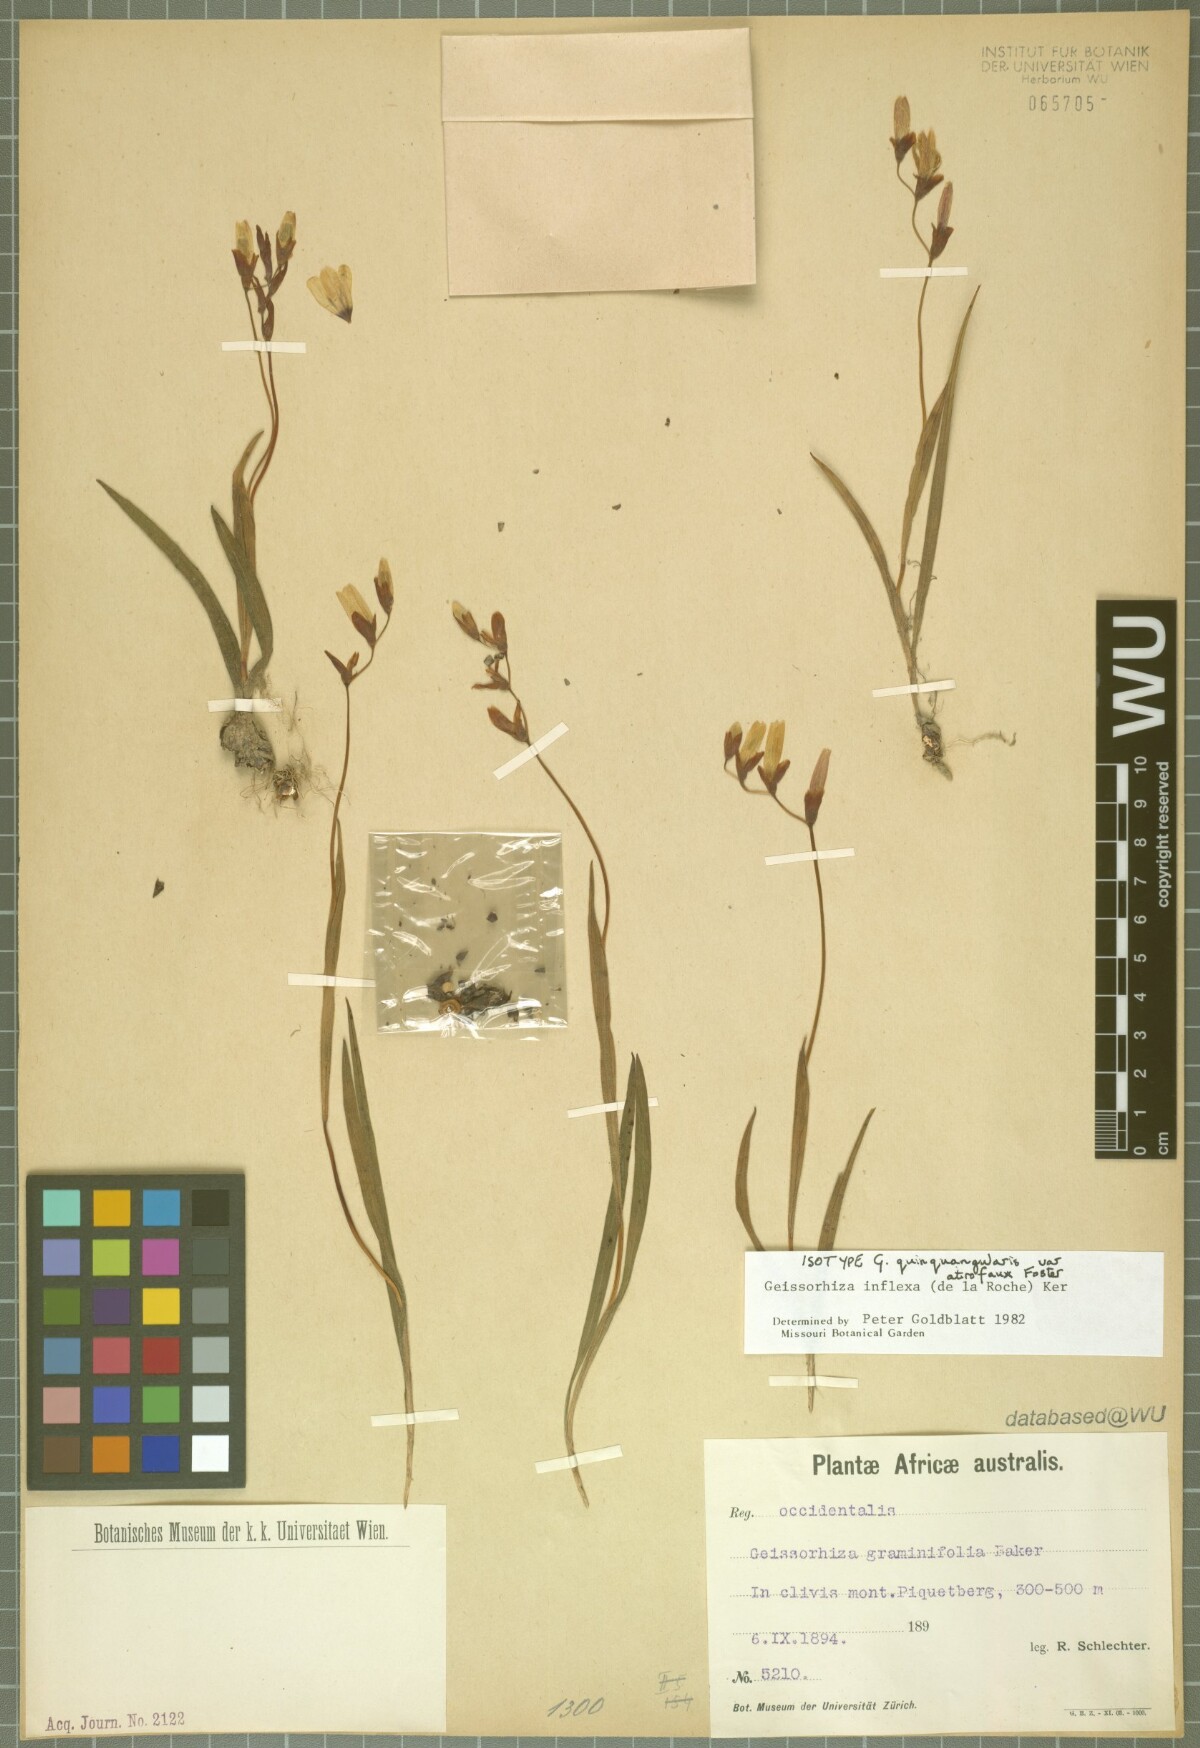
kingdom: Plantae
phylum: Tracheophyta
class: Liliopsida
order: Asparagales
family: Iridaceae
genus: Geissorhiza
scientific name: Geissorhiza inflexa
